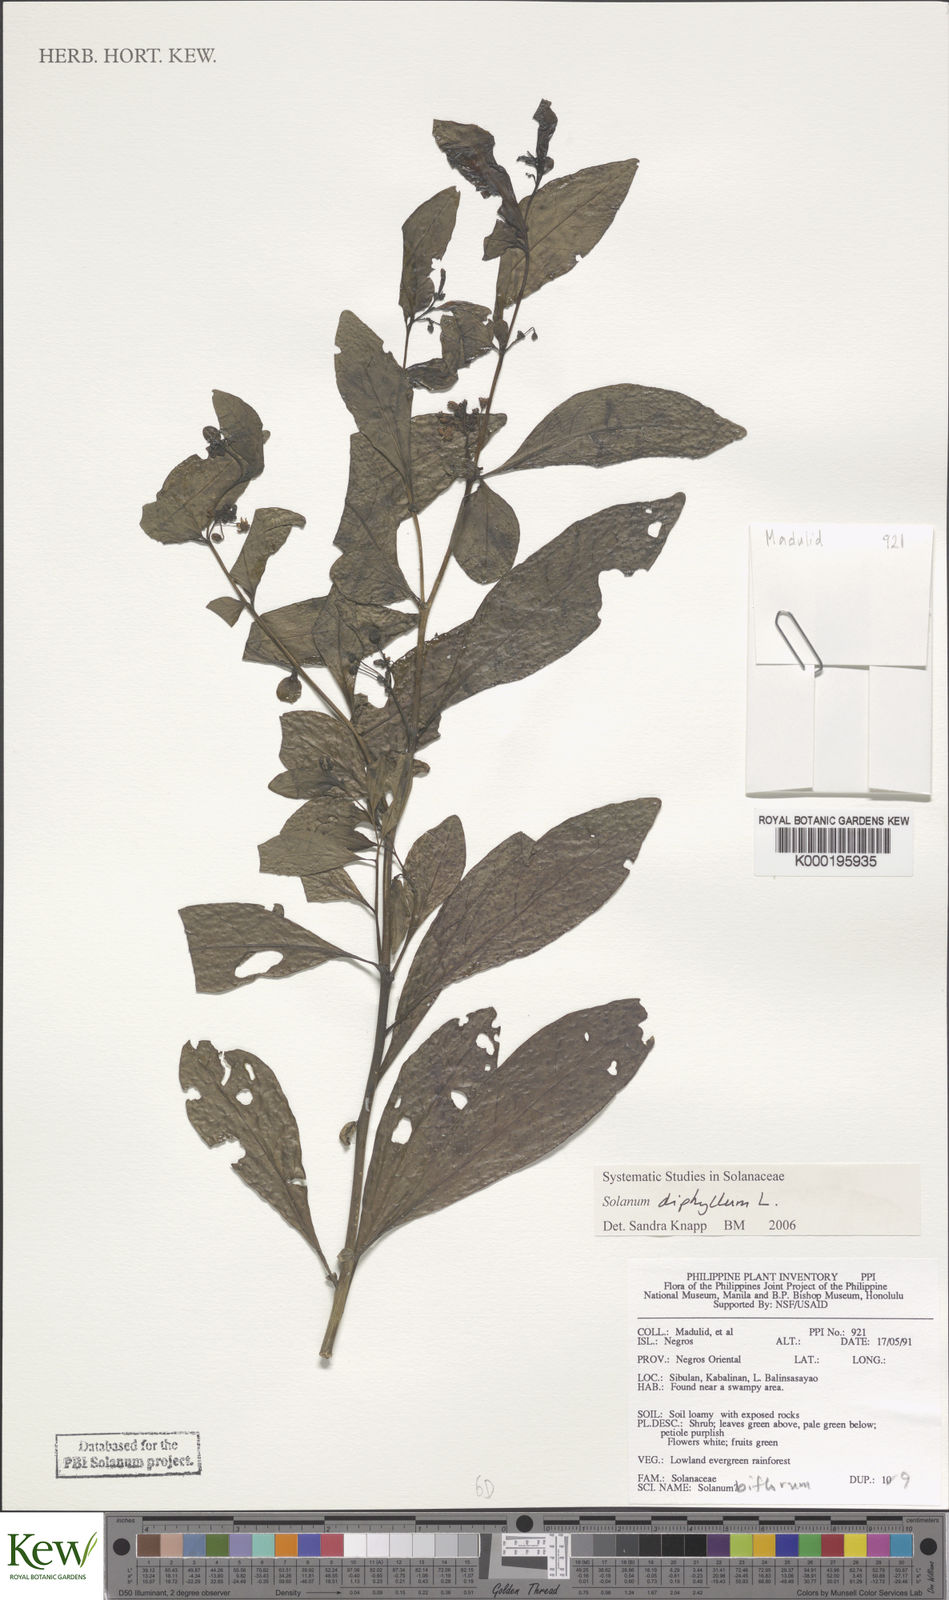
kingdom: Plantae
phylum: Tracheophyta
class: Magnoliopsida
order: Solanales
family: Solanaceae
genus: Solanum
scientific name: Solanum diphyllum
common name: Twoleaf nightshade
